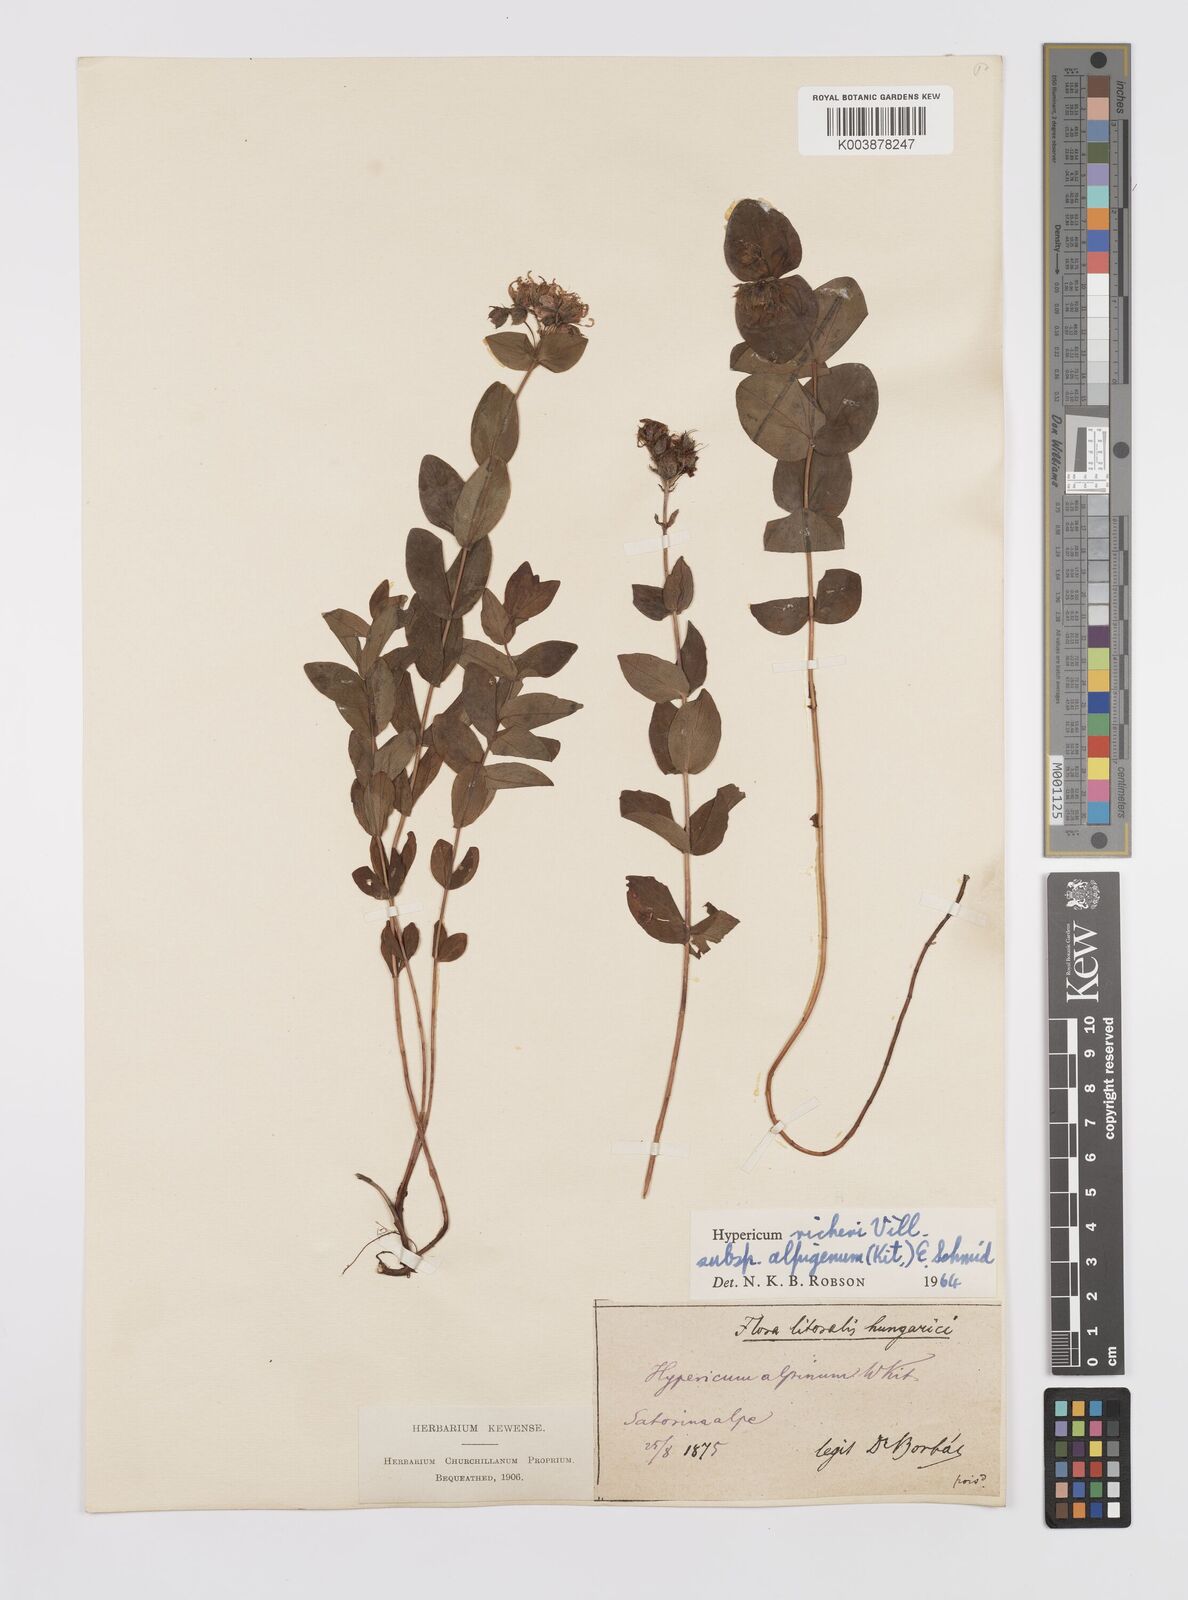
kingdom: Plantae
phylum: Tracheophyta
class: Magnoliopsida
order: Malpighiales
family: Hypericaceae
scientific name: Hypericaceae
